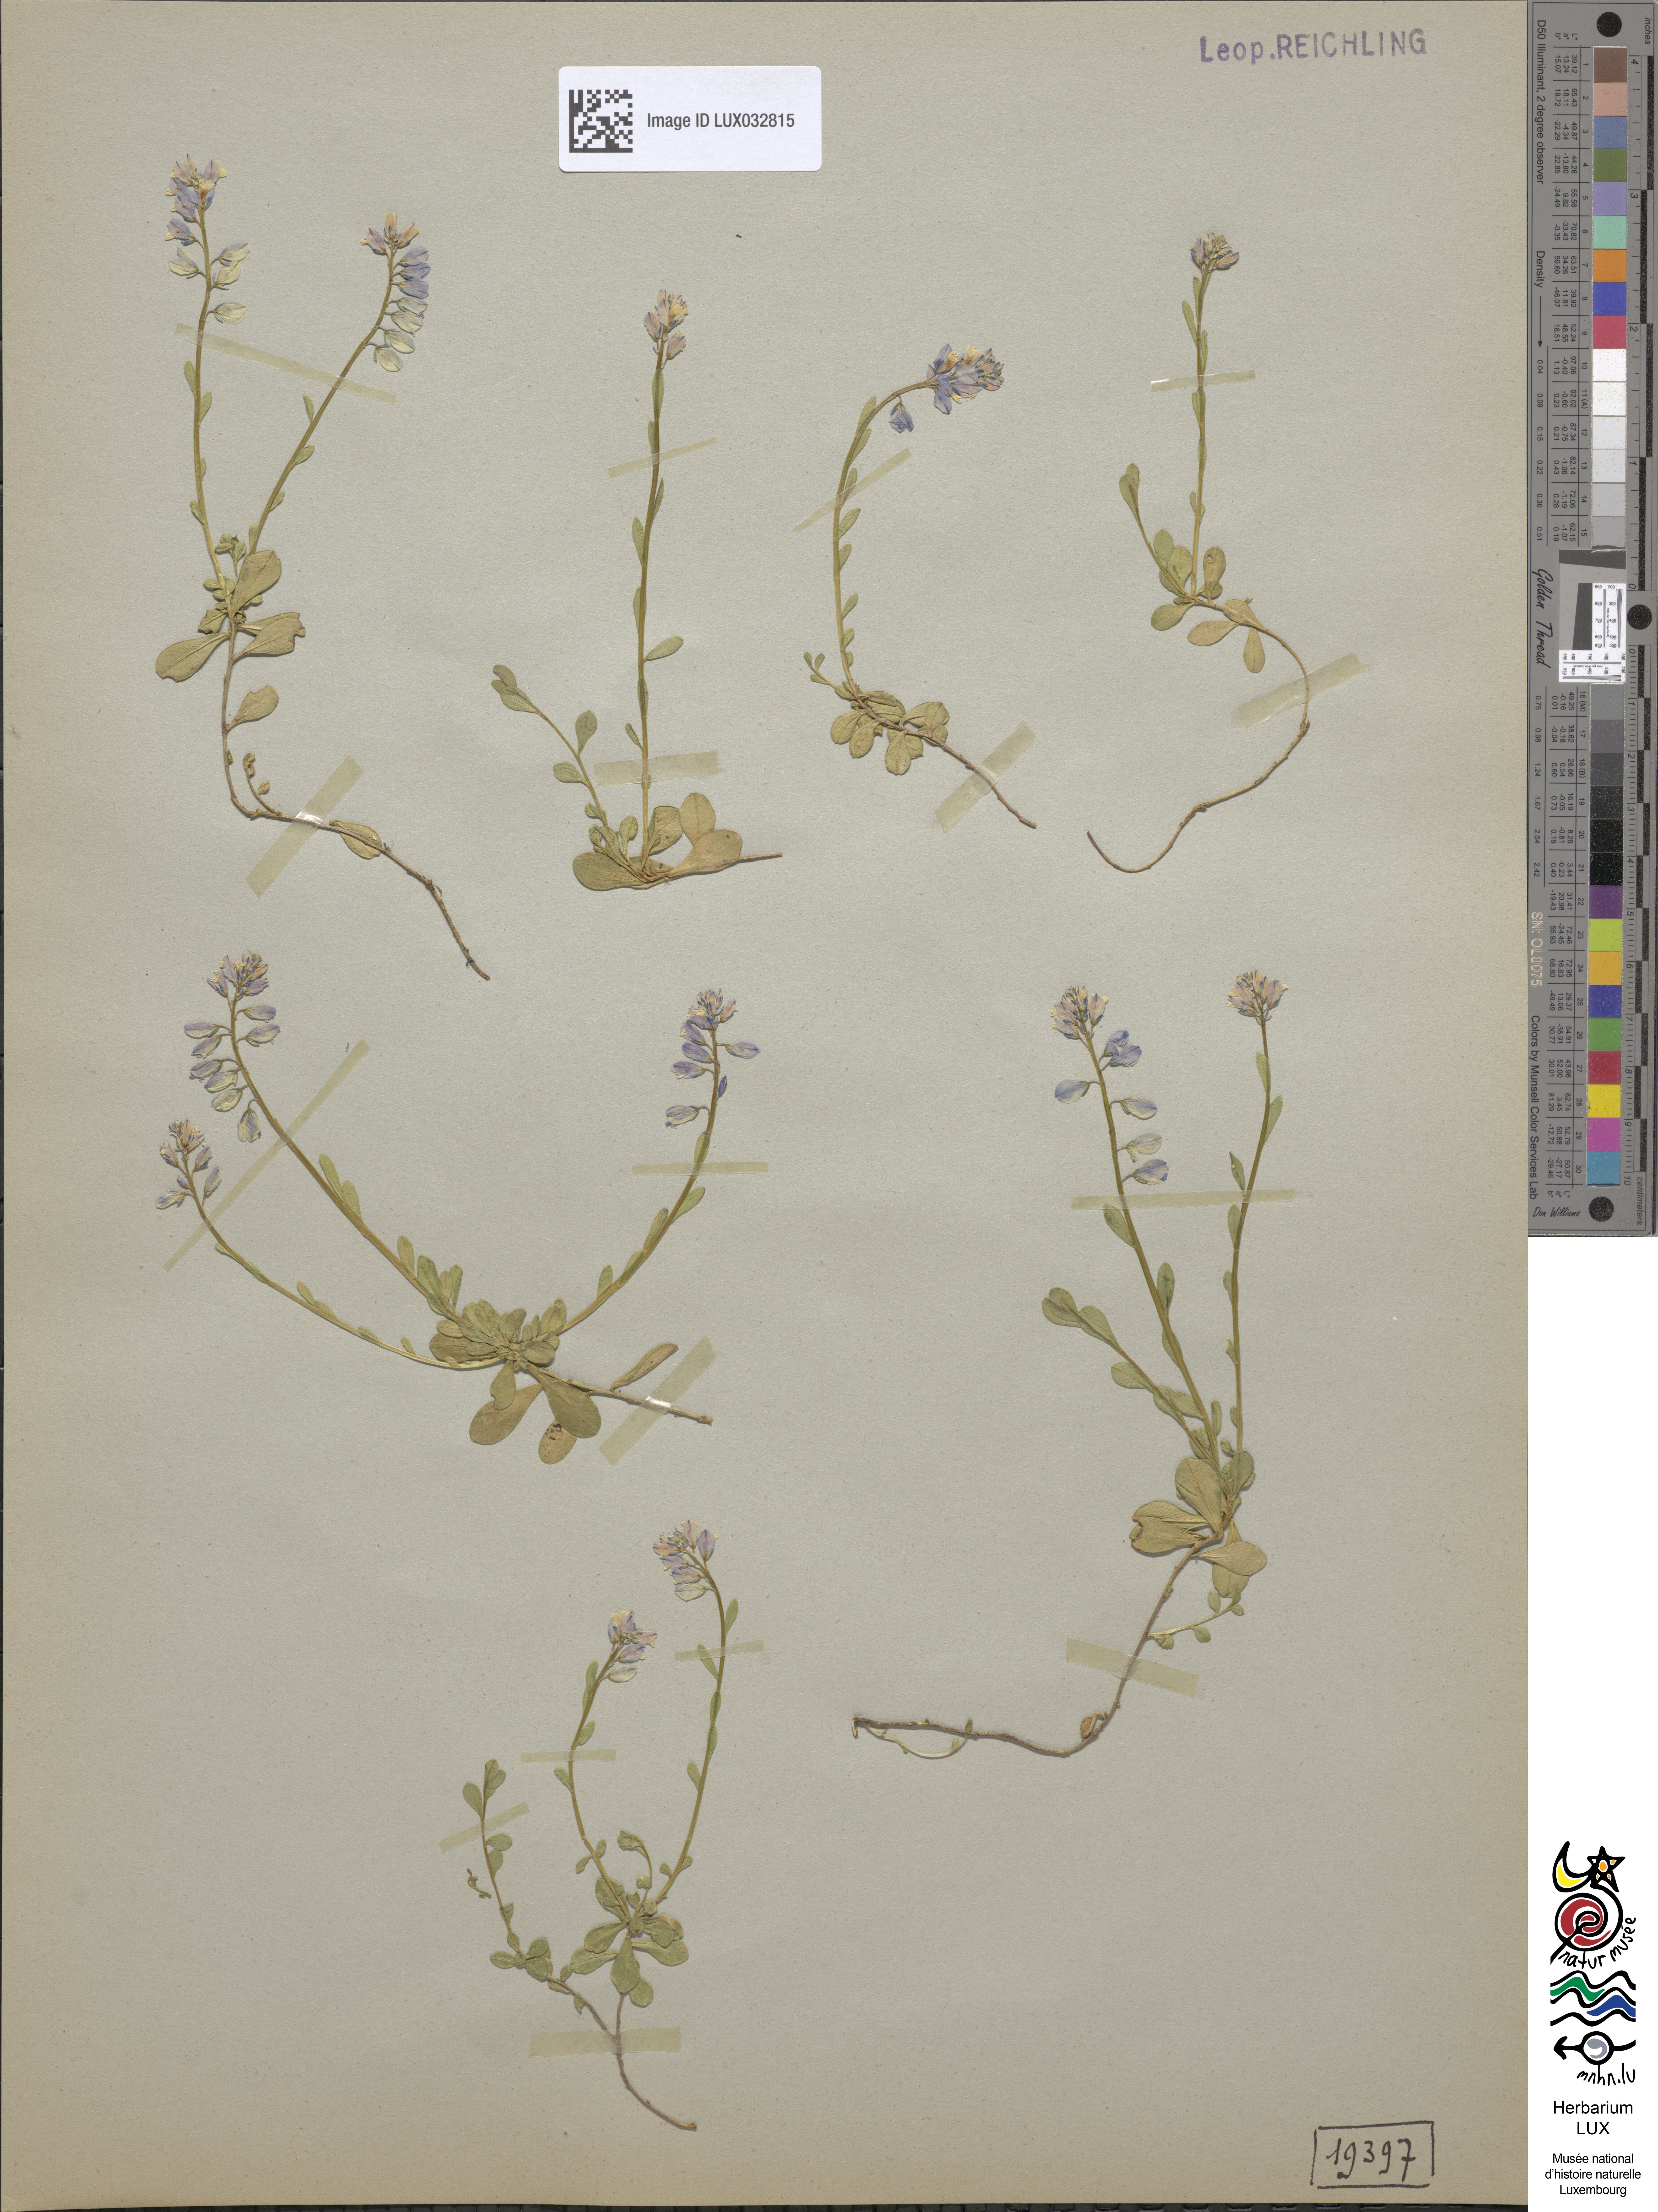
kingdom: Plantae
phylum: Tracheophyta
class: Magnoliopsida
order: Fabales
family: Polygalaceae
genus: Polygala
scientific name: Polygala calcarea
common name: Chalk milkwort
